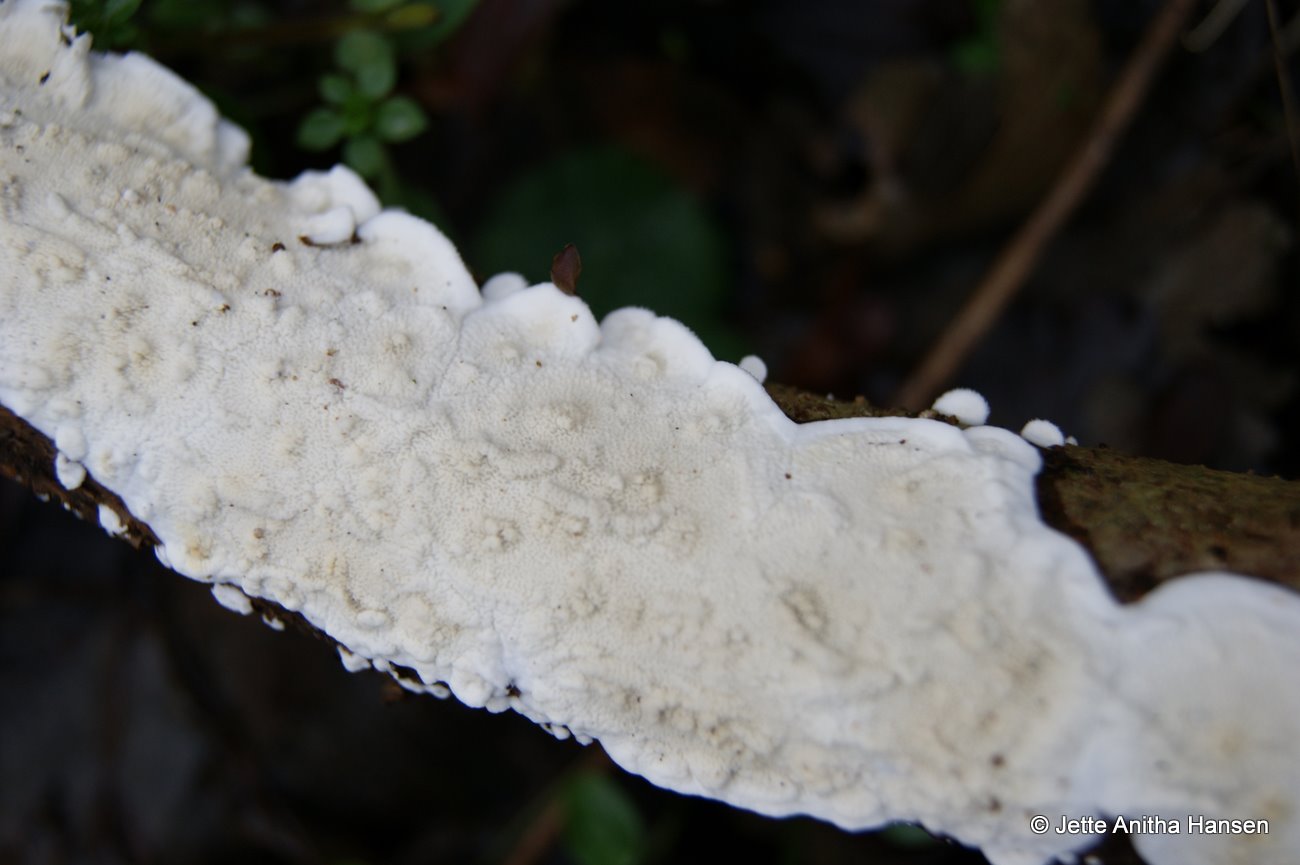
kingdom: Fungi
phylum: Basidiomycota
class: Agaricomycetes
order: Polyporales
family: Irpicaceae
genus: Byssomerulius
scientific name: Byssomerulius corium
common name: læder-åresvamp
